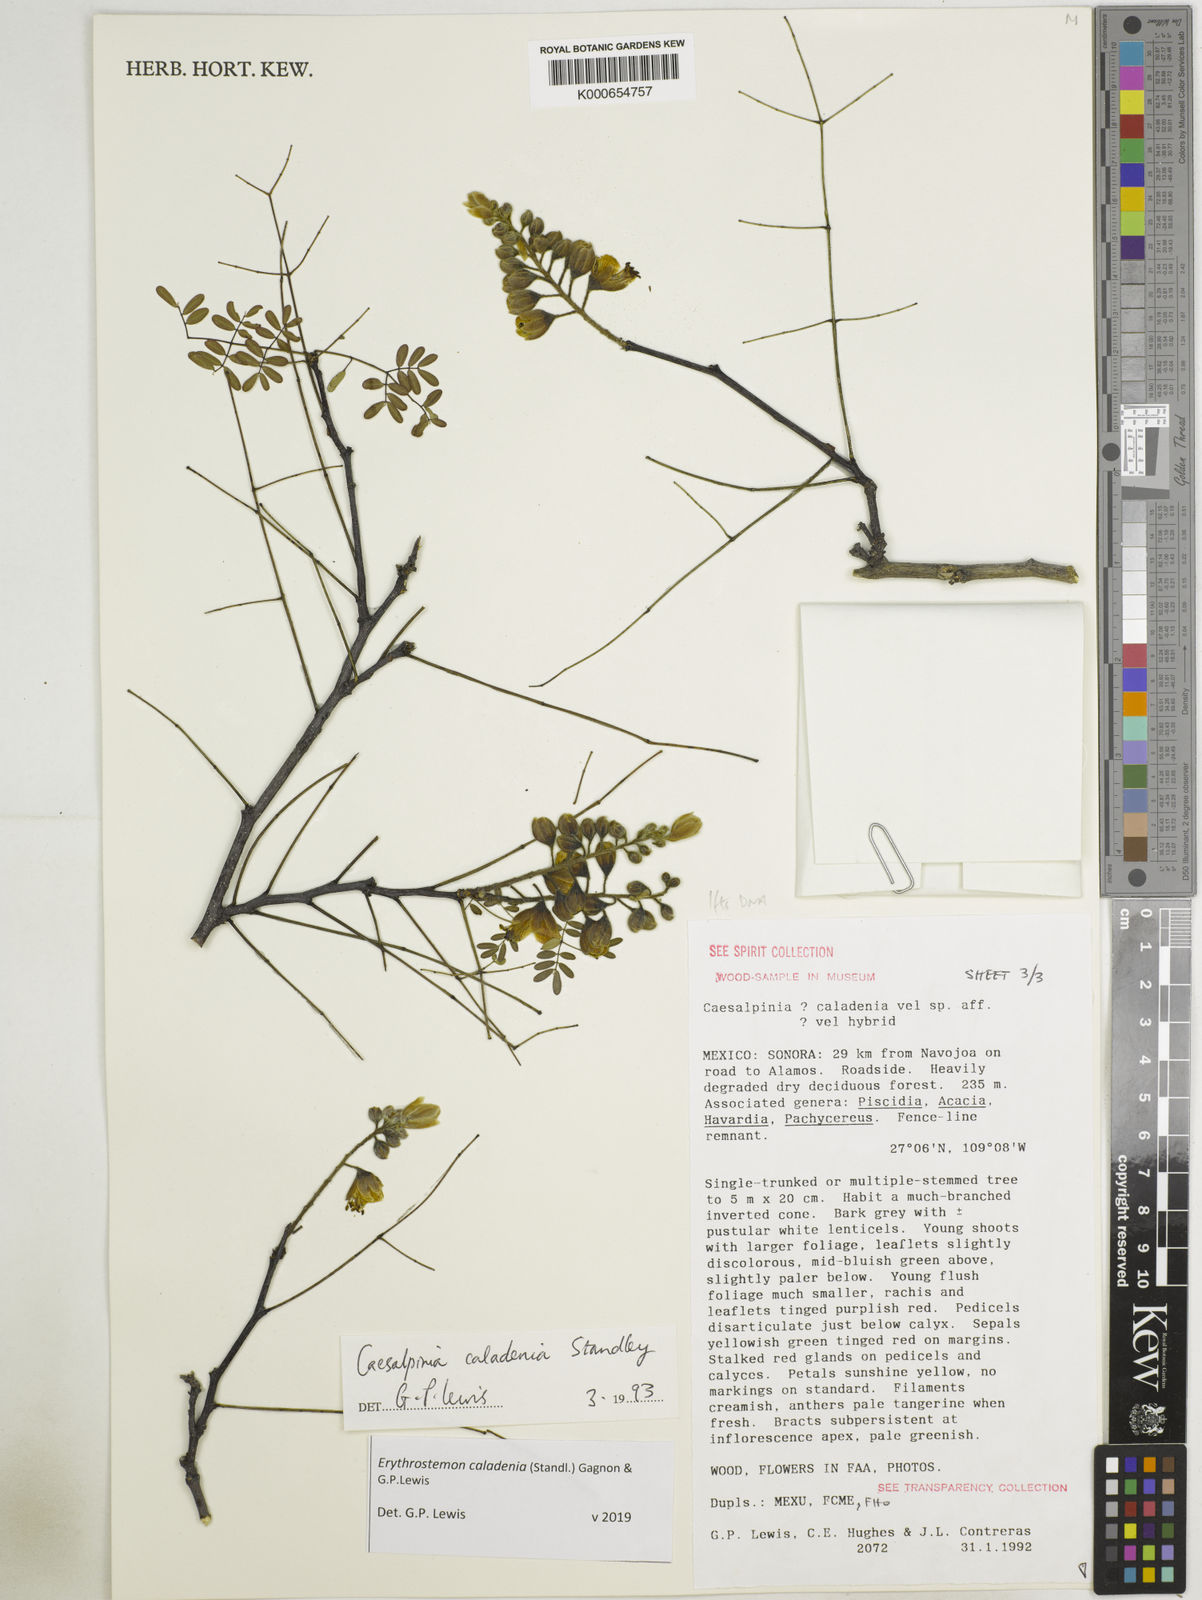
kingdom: Plantae
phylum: Tracheophyta
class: Magnoliopsida
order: Fabales
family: Fabaceae
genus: Erythrostemon
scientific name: Erythrostemon caladenia
